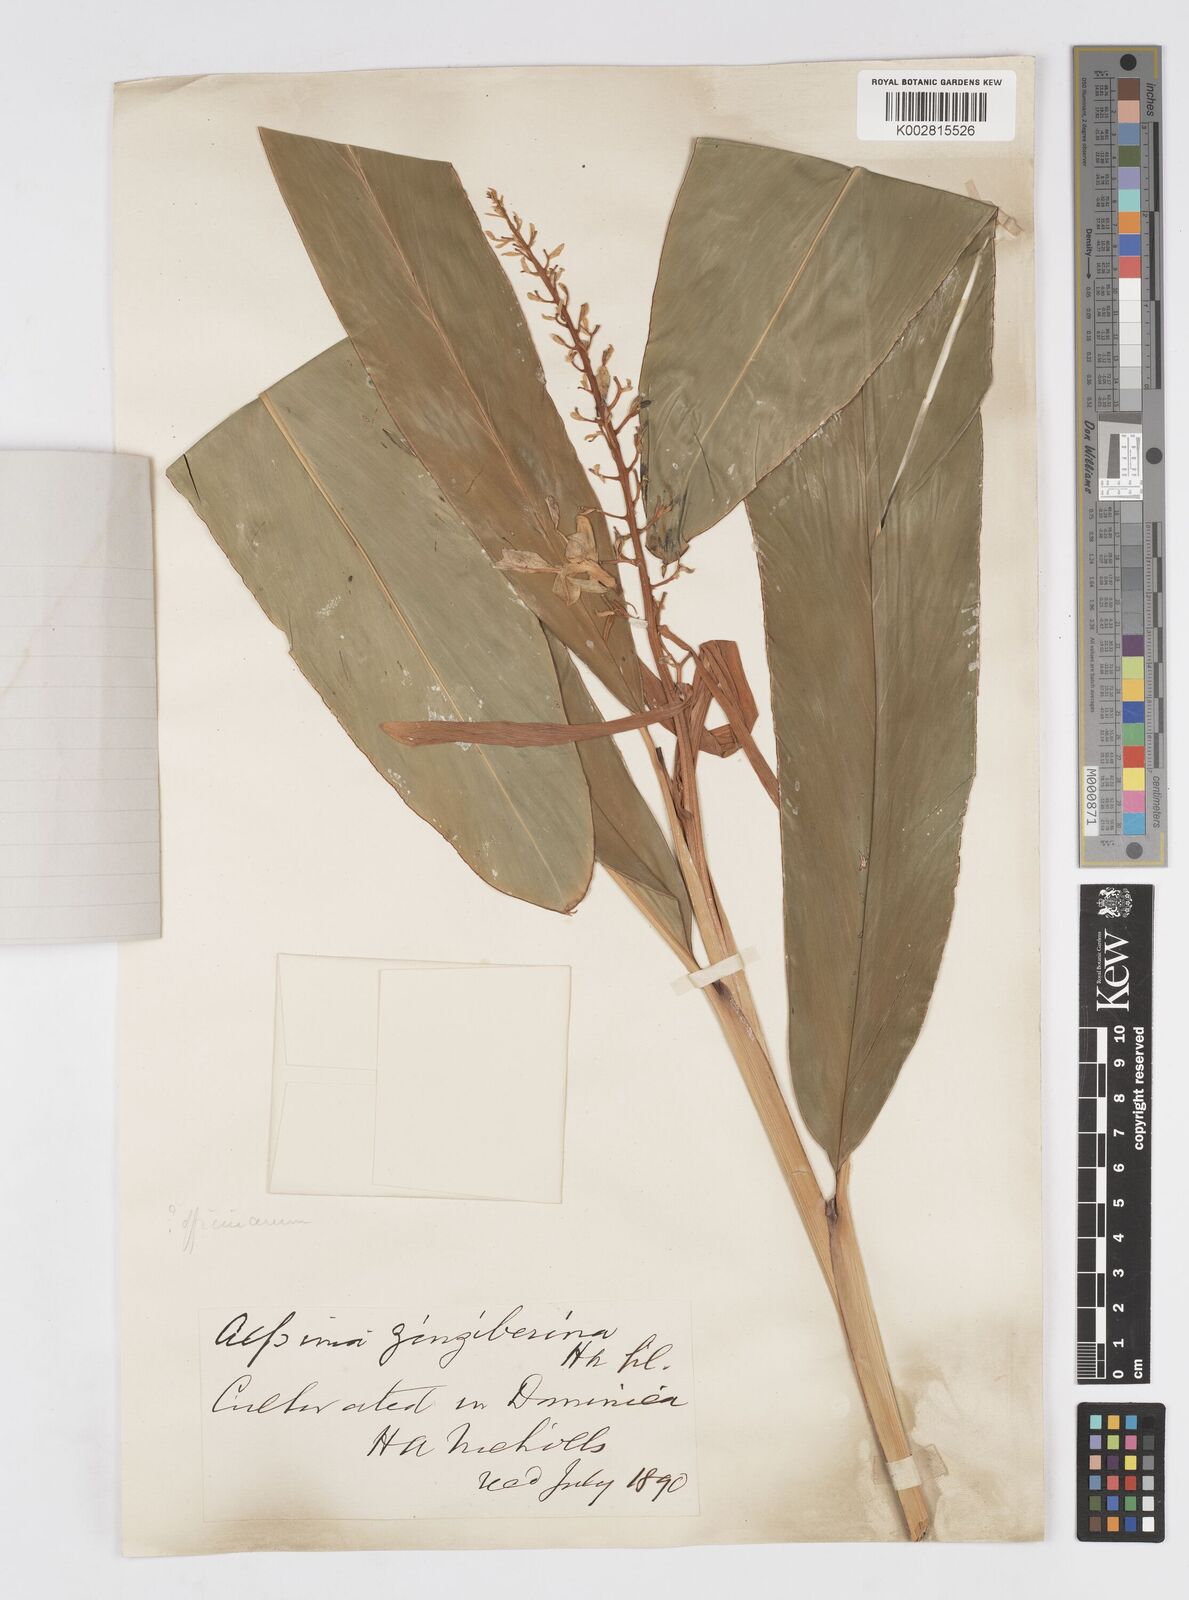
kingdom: Plantae
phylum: Tracheophyta
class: Liliopsida
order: Zingiberales
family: Zingiberaceae
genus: Alpinia
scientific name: Alpinia siamensis
